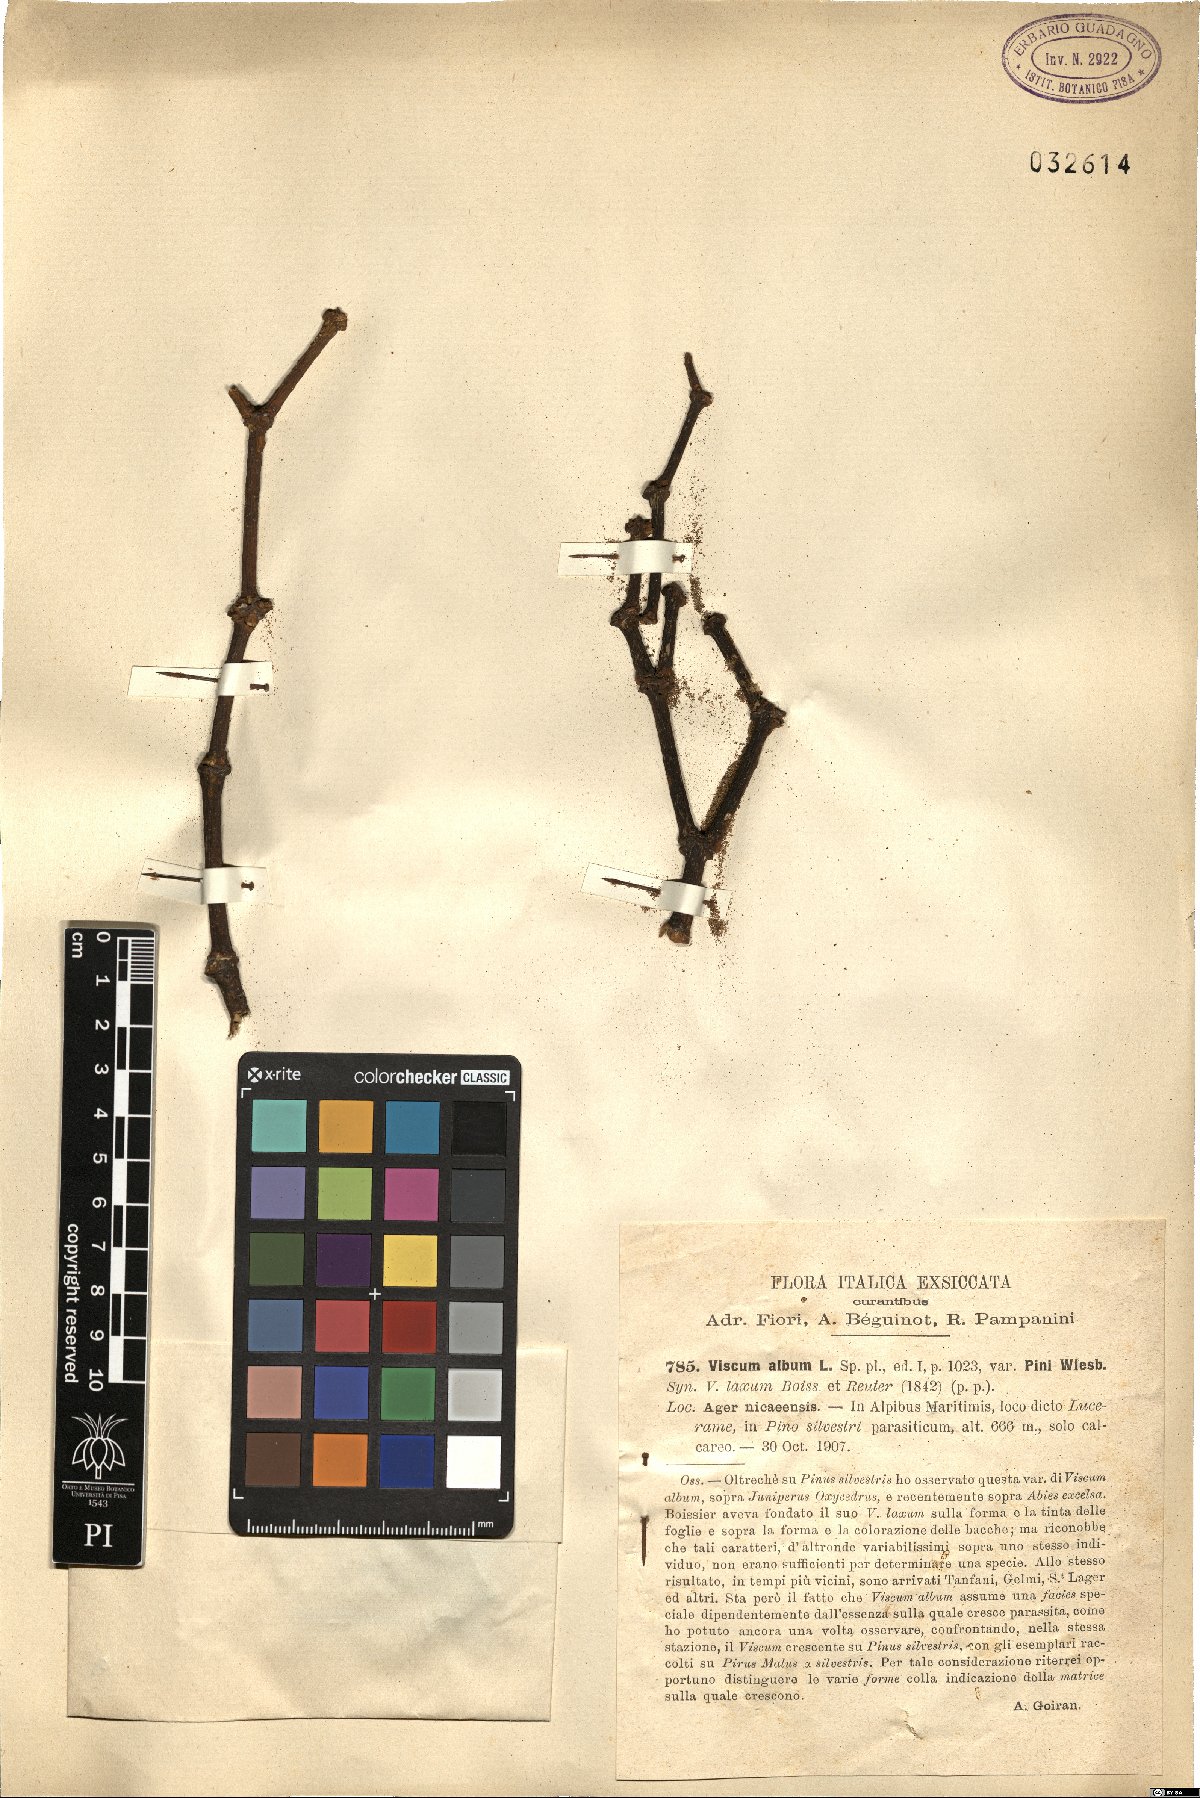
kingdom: Plantae
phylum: Tracheophyta
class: Magnoliopsida
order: Santalales
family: Viscaceae
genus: Viscum
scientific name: Viscum laxum
